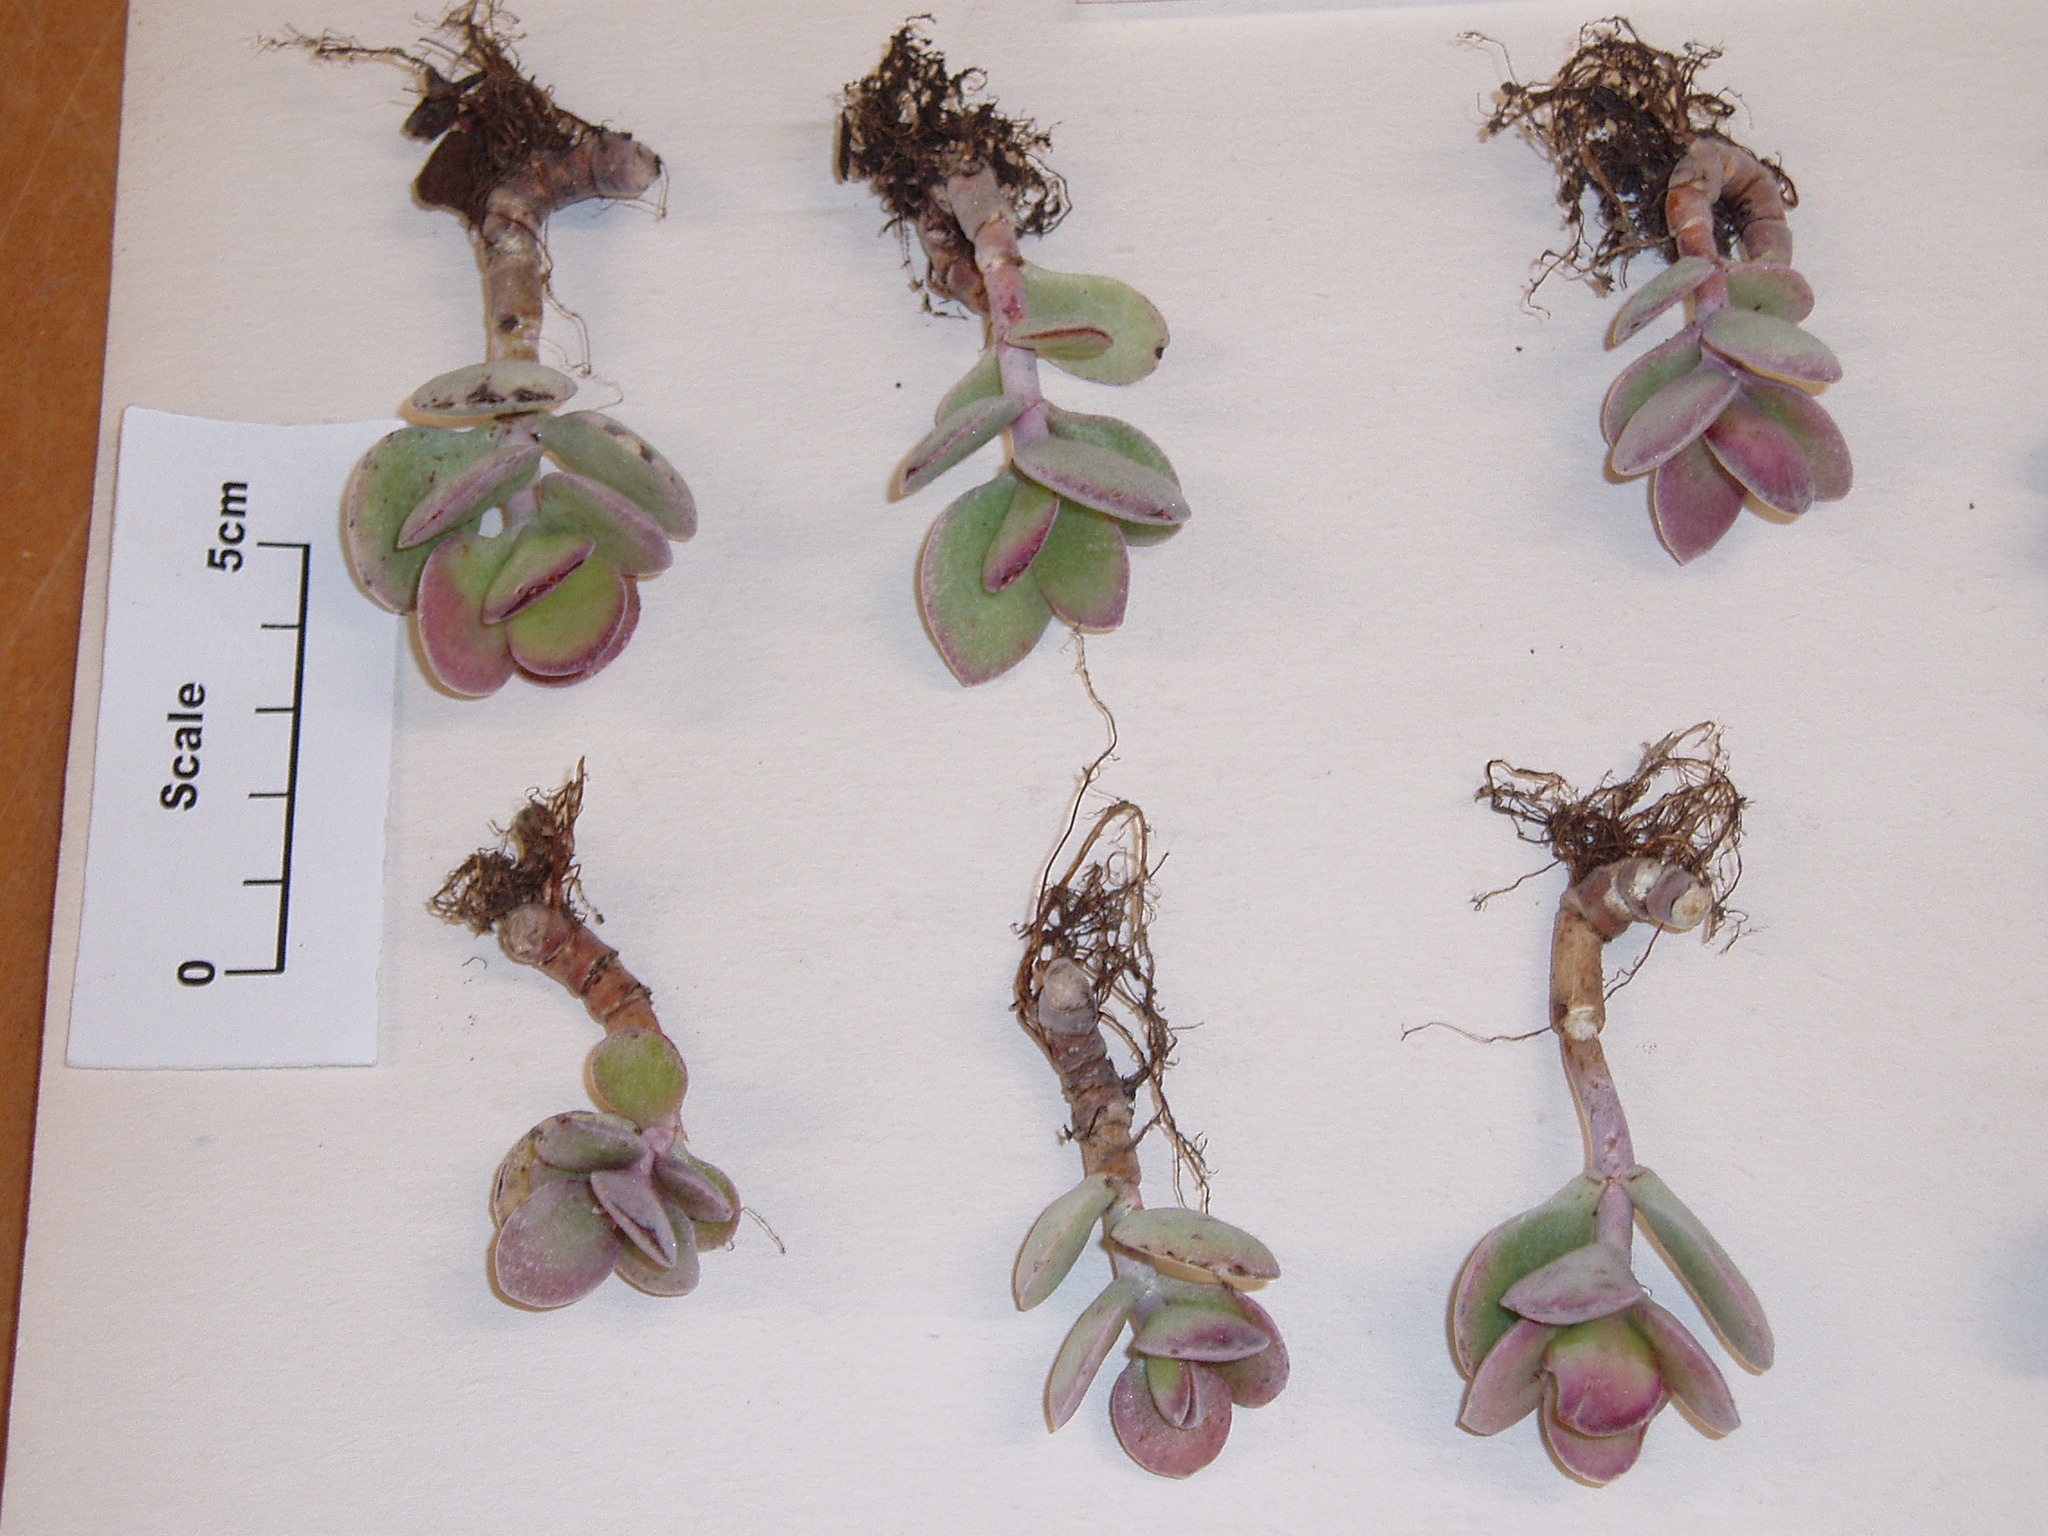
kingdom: Plantae
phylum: Tracheophyta
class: Magnoliopsida
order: Saxifragales
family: Crassulaceae
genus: Crassula
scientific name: Crassula ovata
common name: Jade plant
